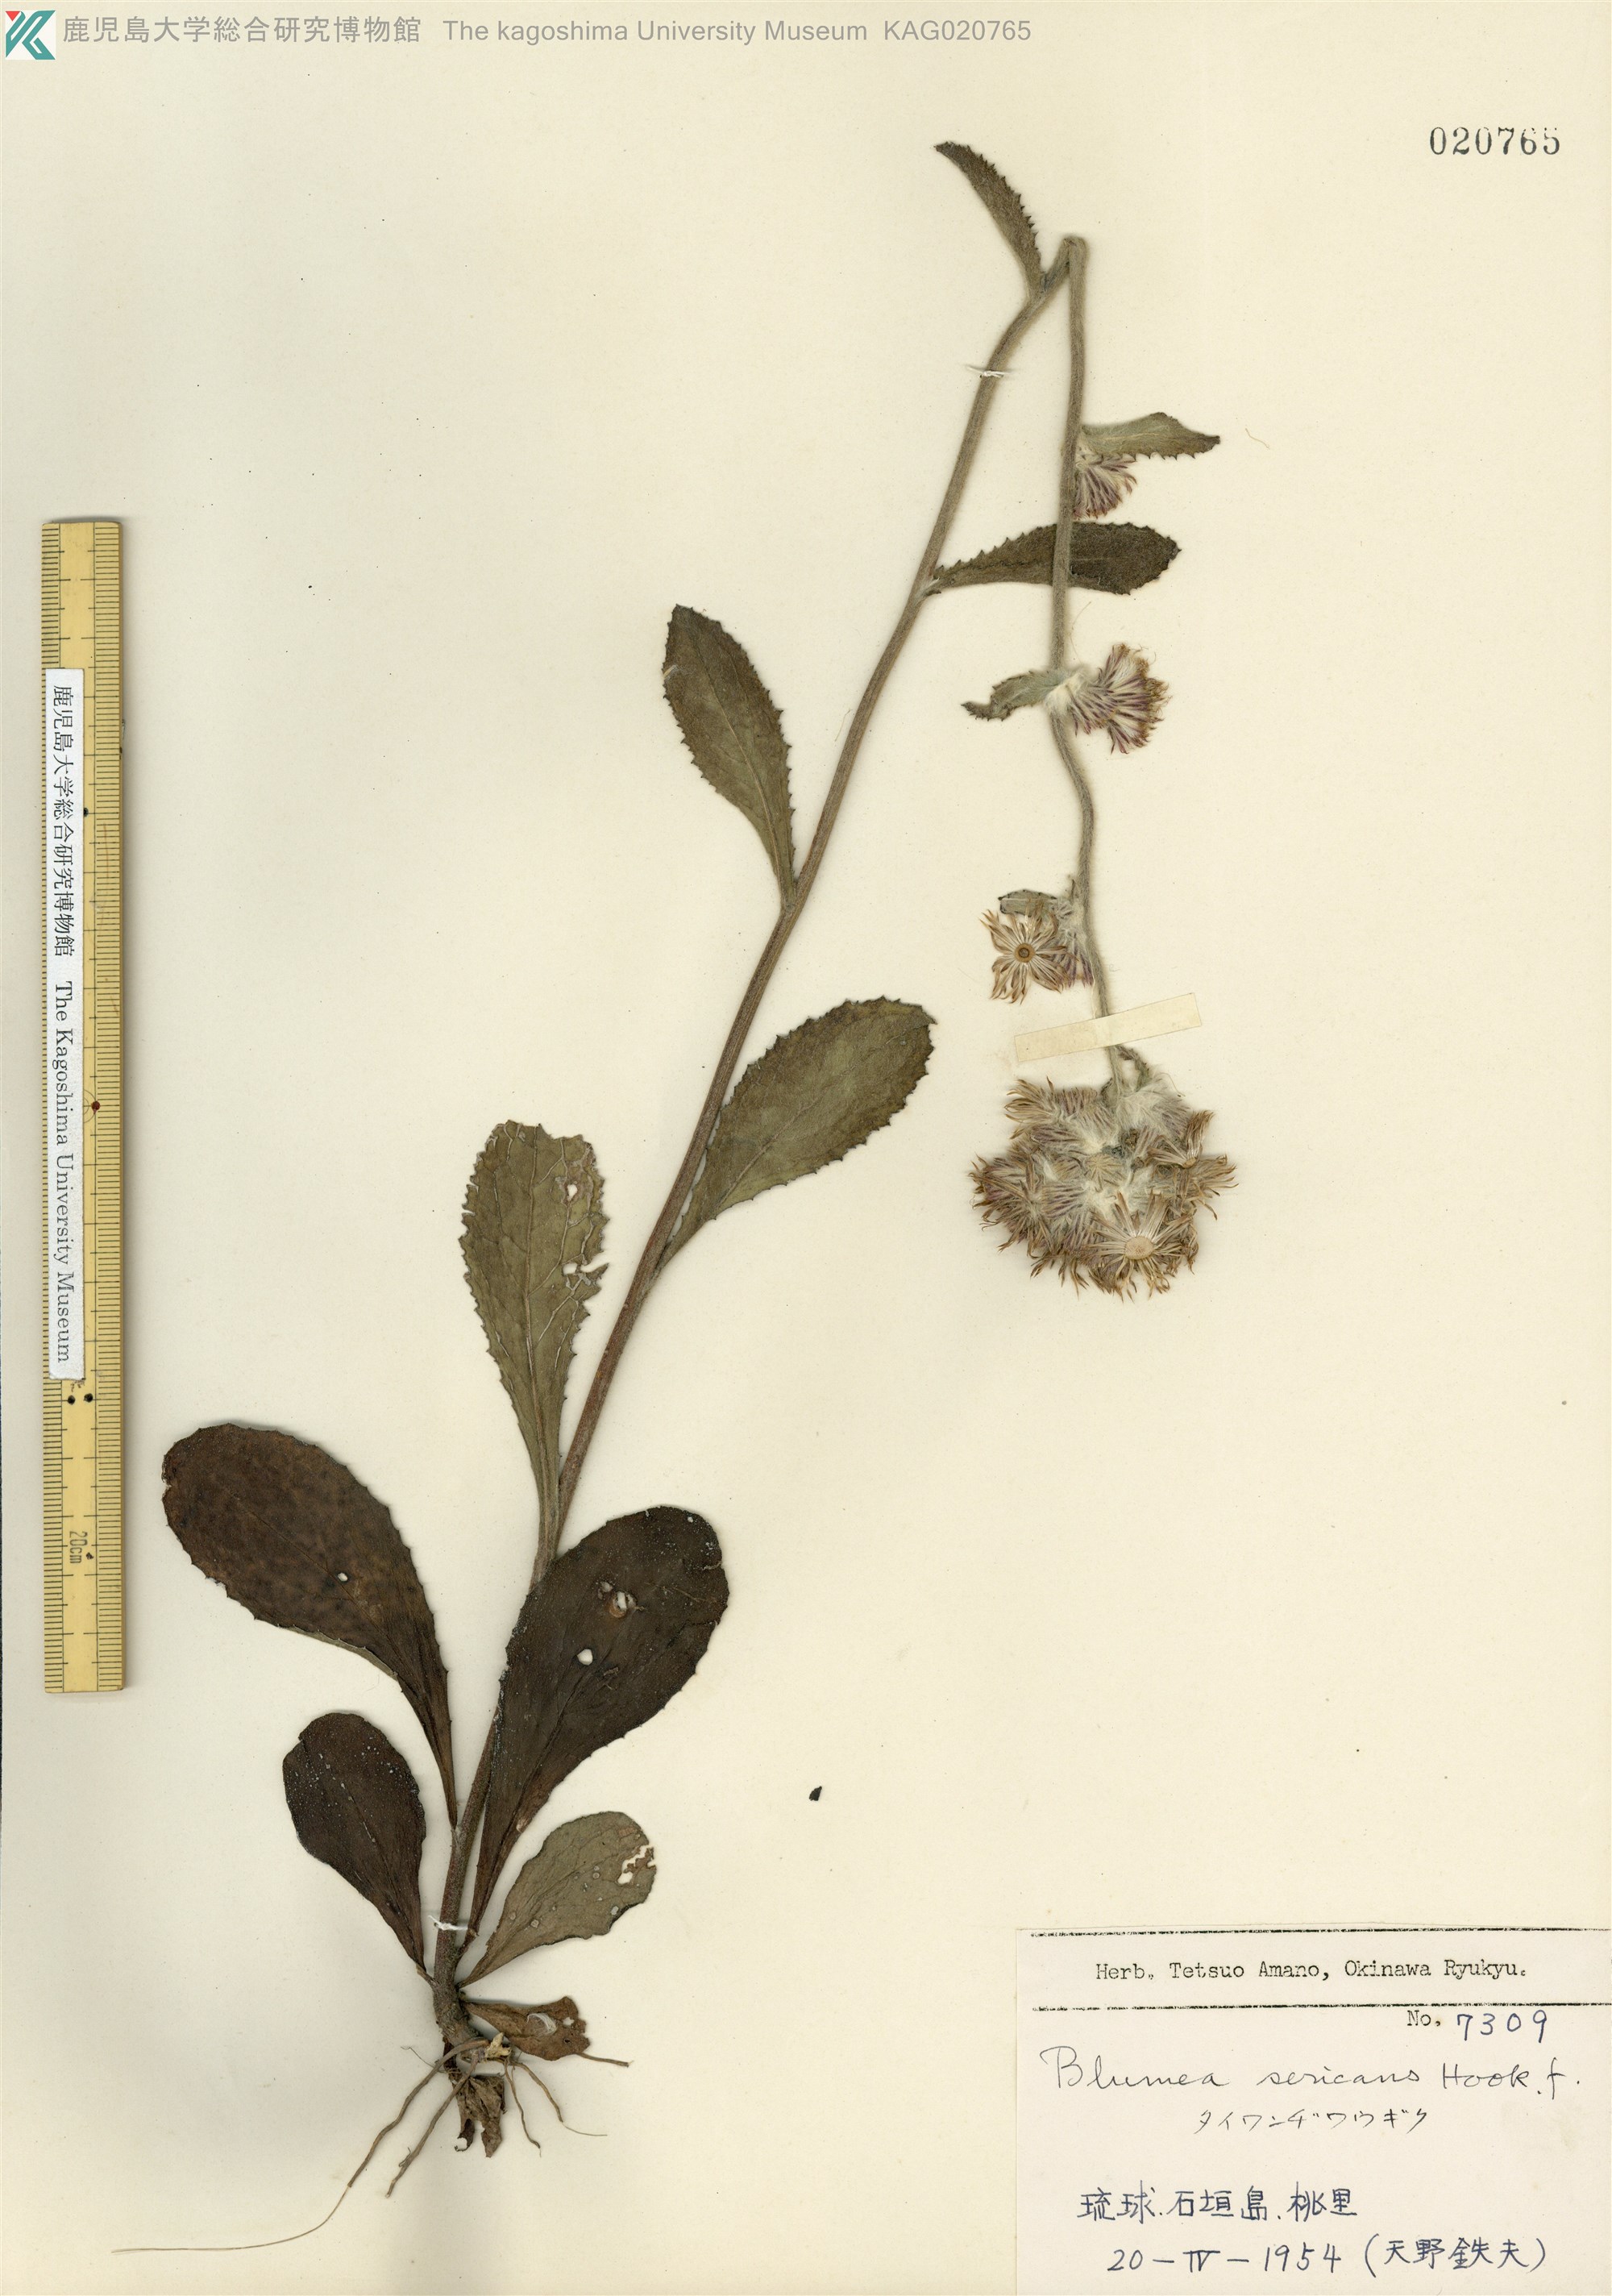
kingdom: Plantae
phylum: Tracheophyta
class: Magnoliopsida
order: Asterales
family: Asteraceae
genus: Blumea
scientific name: Blumea hieraciifolia
